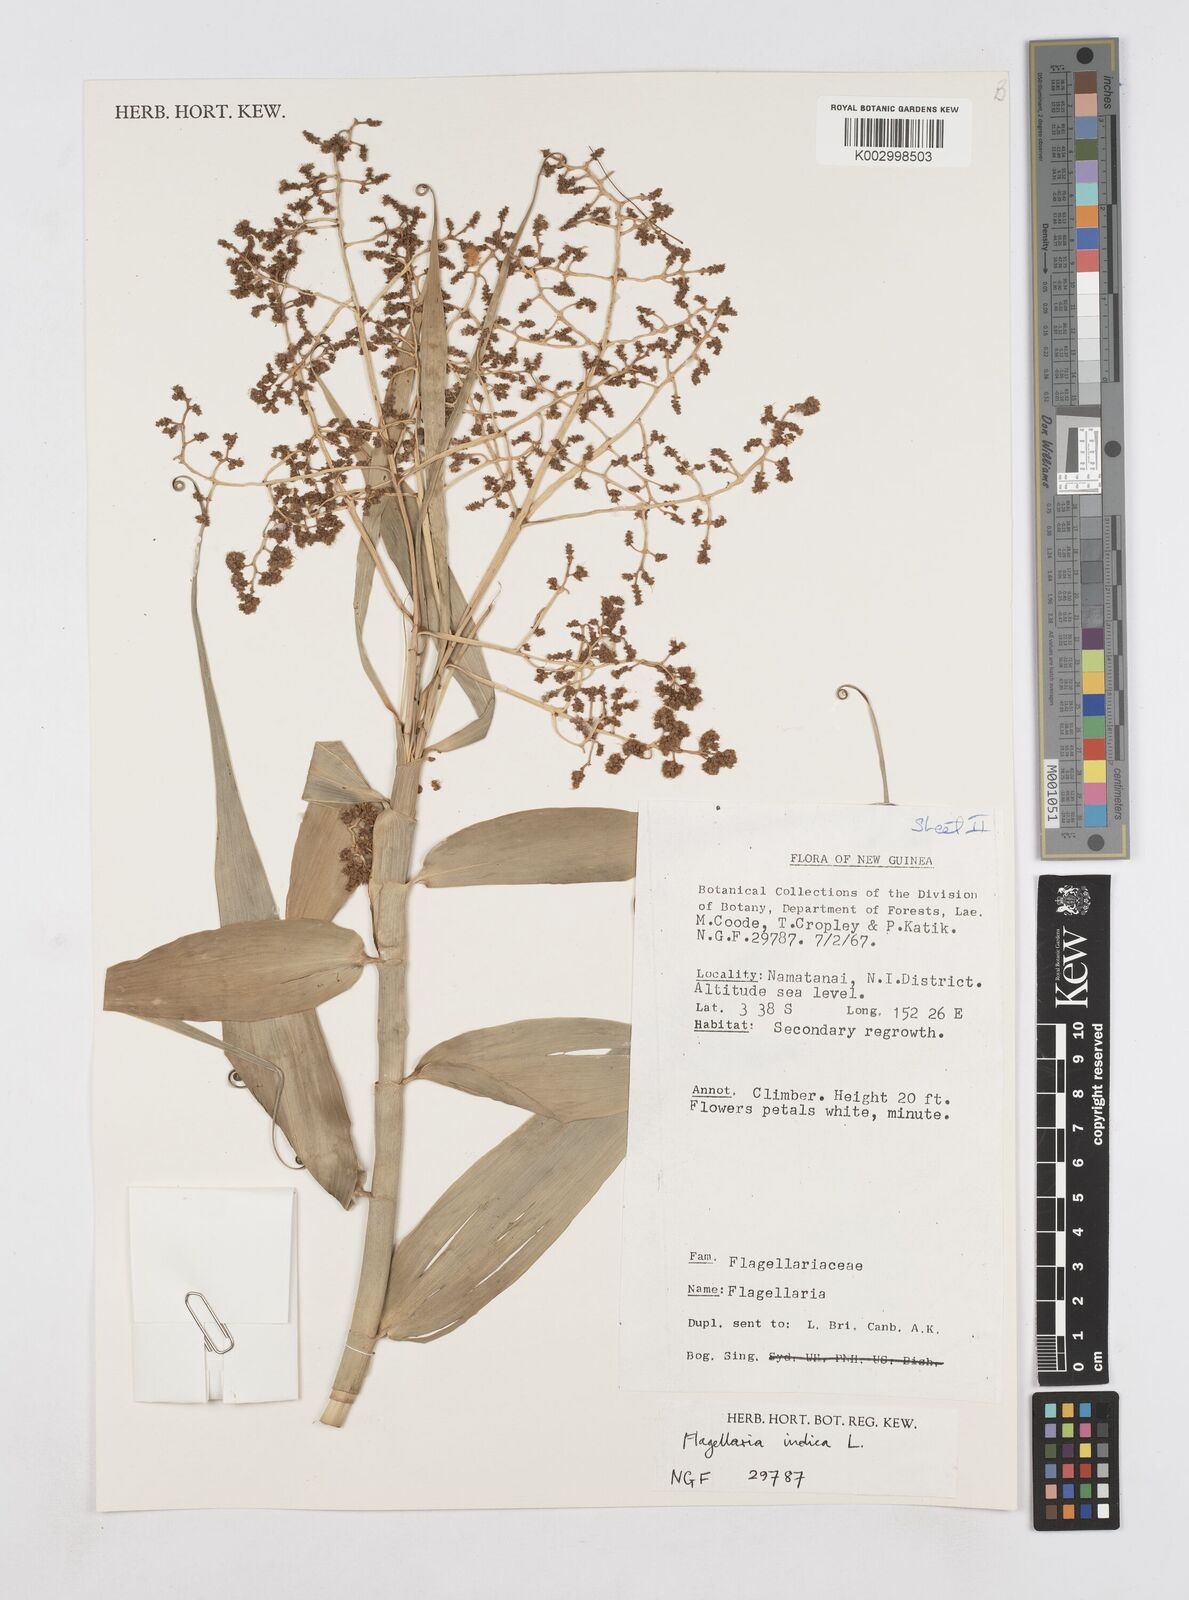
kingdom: Plantae
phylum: Tracheophyta
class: Liliopsida
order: Poales
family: Flagellariaceae
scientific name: Flagellariaceae
